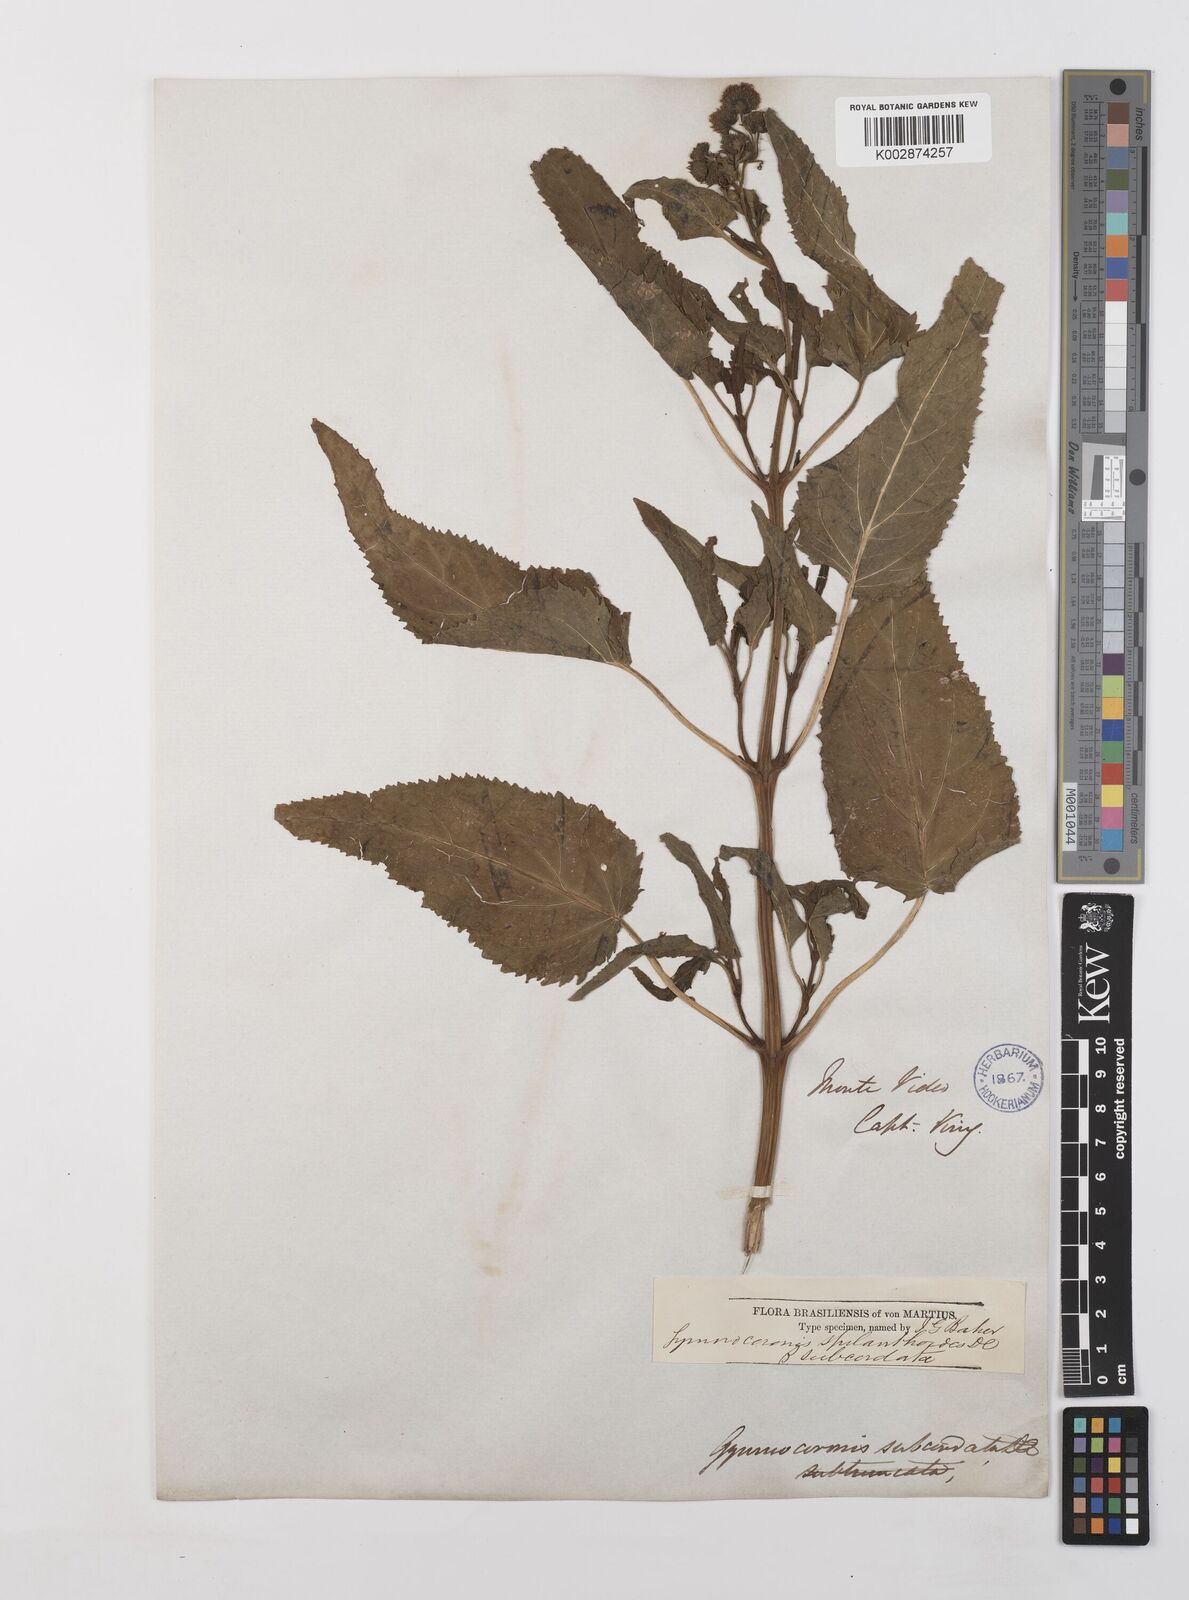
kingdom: Plantae
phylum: Tracheophyta
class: Magnoliopsida
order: Asterales
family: Asteraceae
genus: Gymnocoronis
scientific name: Gymnocoronis spilanthoides
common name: Senegal teaplant
